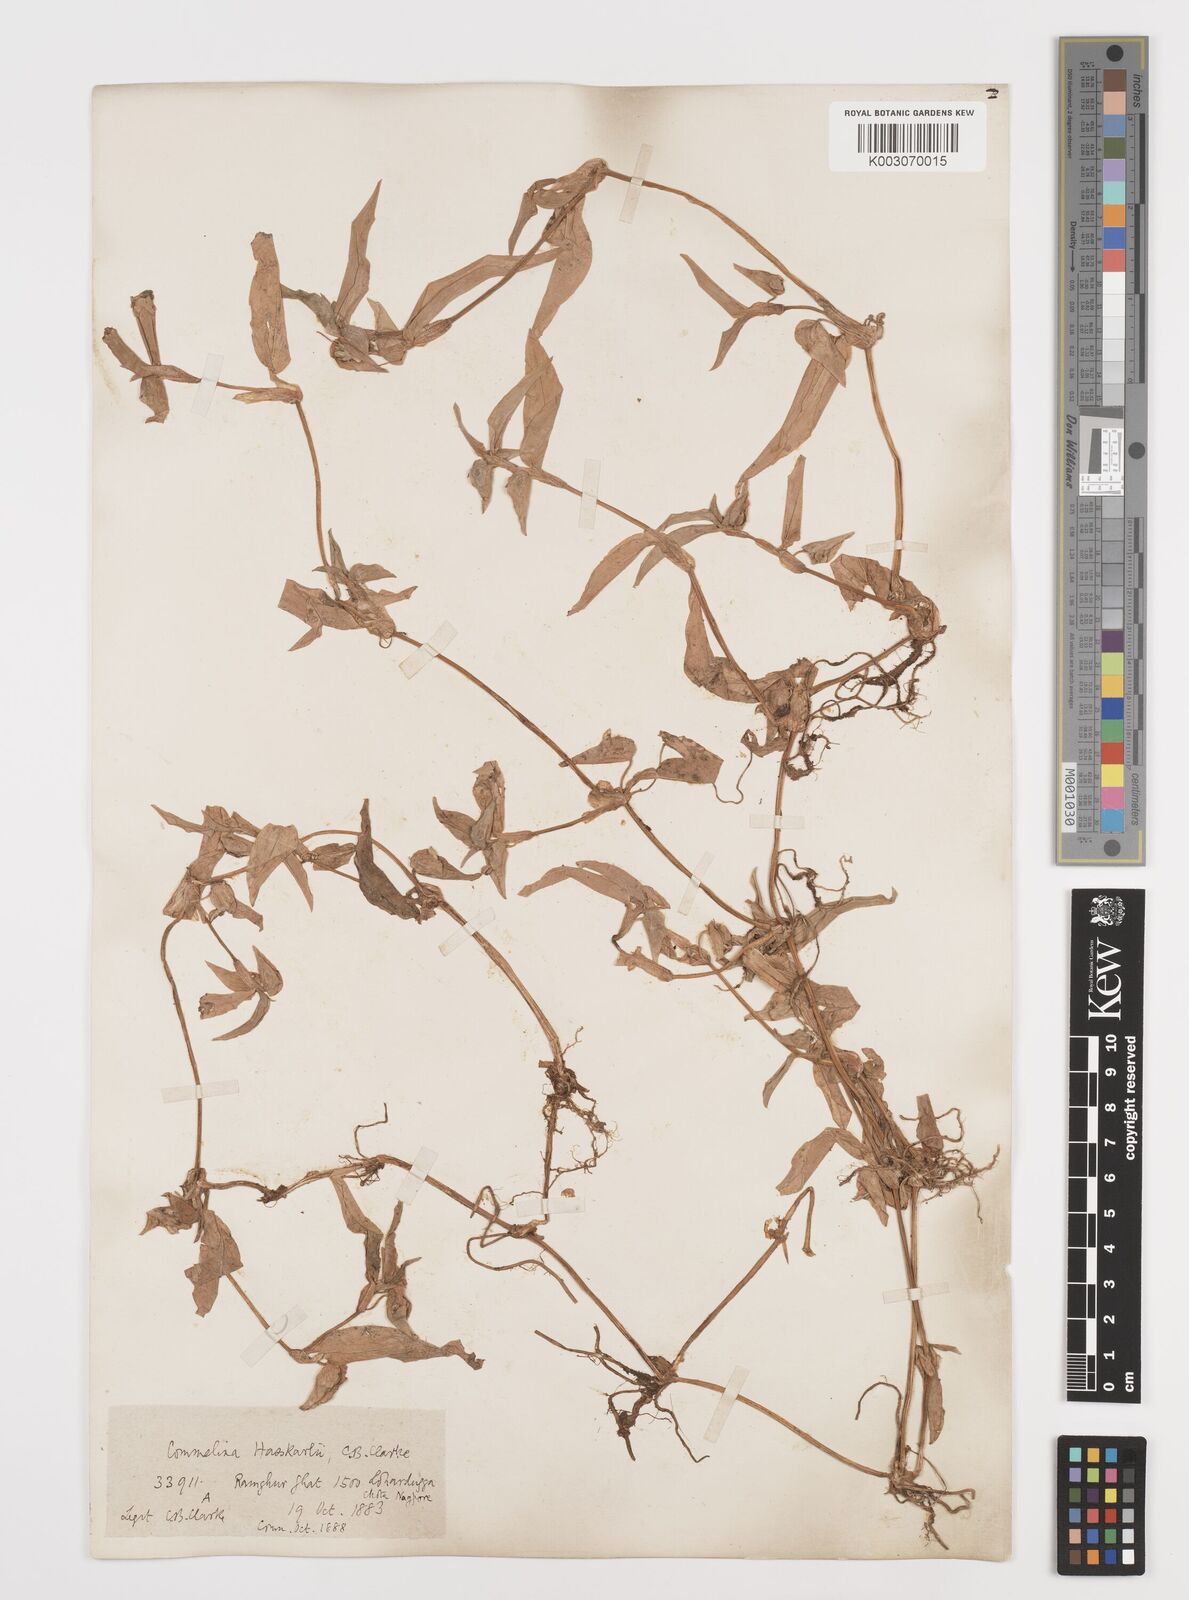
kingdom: Plantae
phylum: Tracheophyta
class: Liliopsida
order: Commelinales
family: Commelinaceae
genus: Commelina
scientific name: Commelina caroliniana
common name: Carolina dayflower
